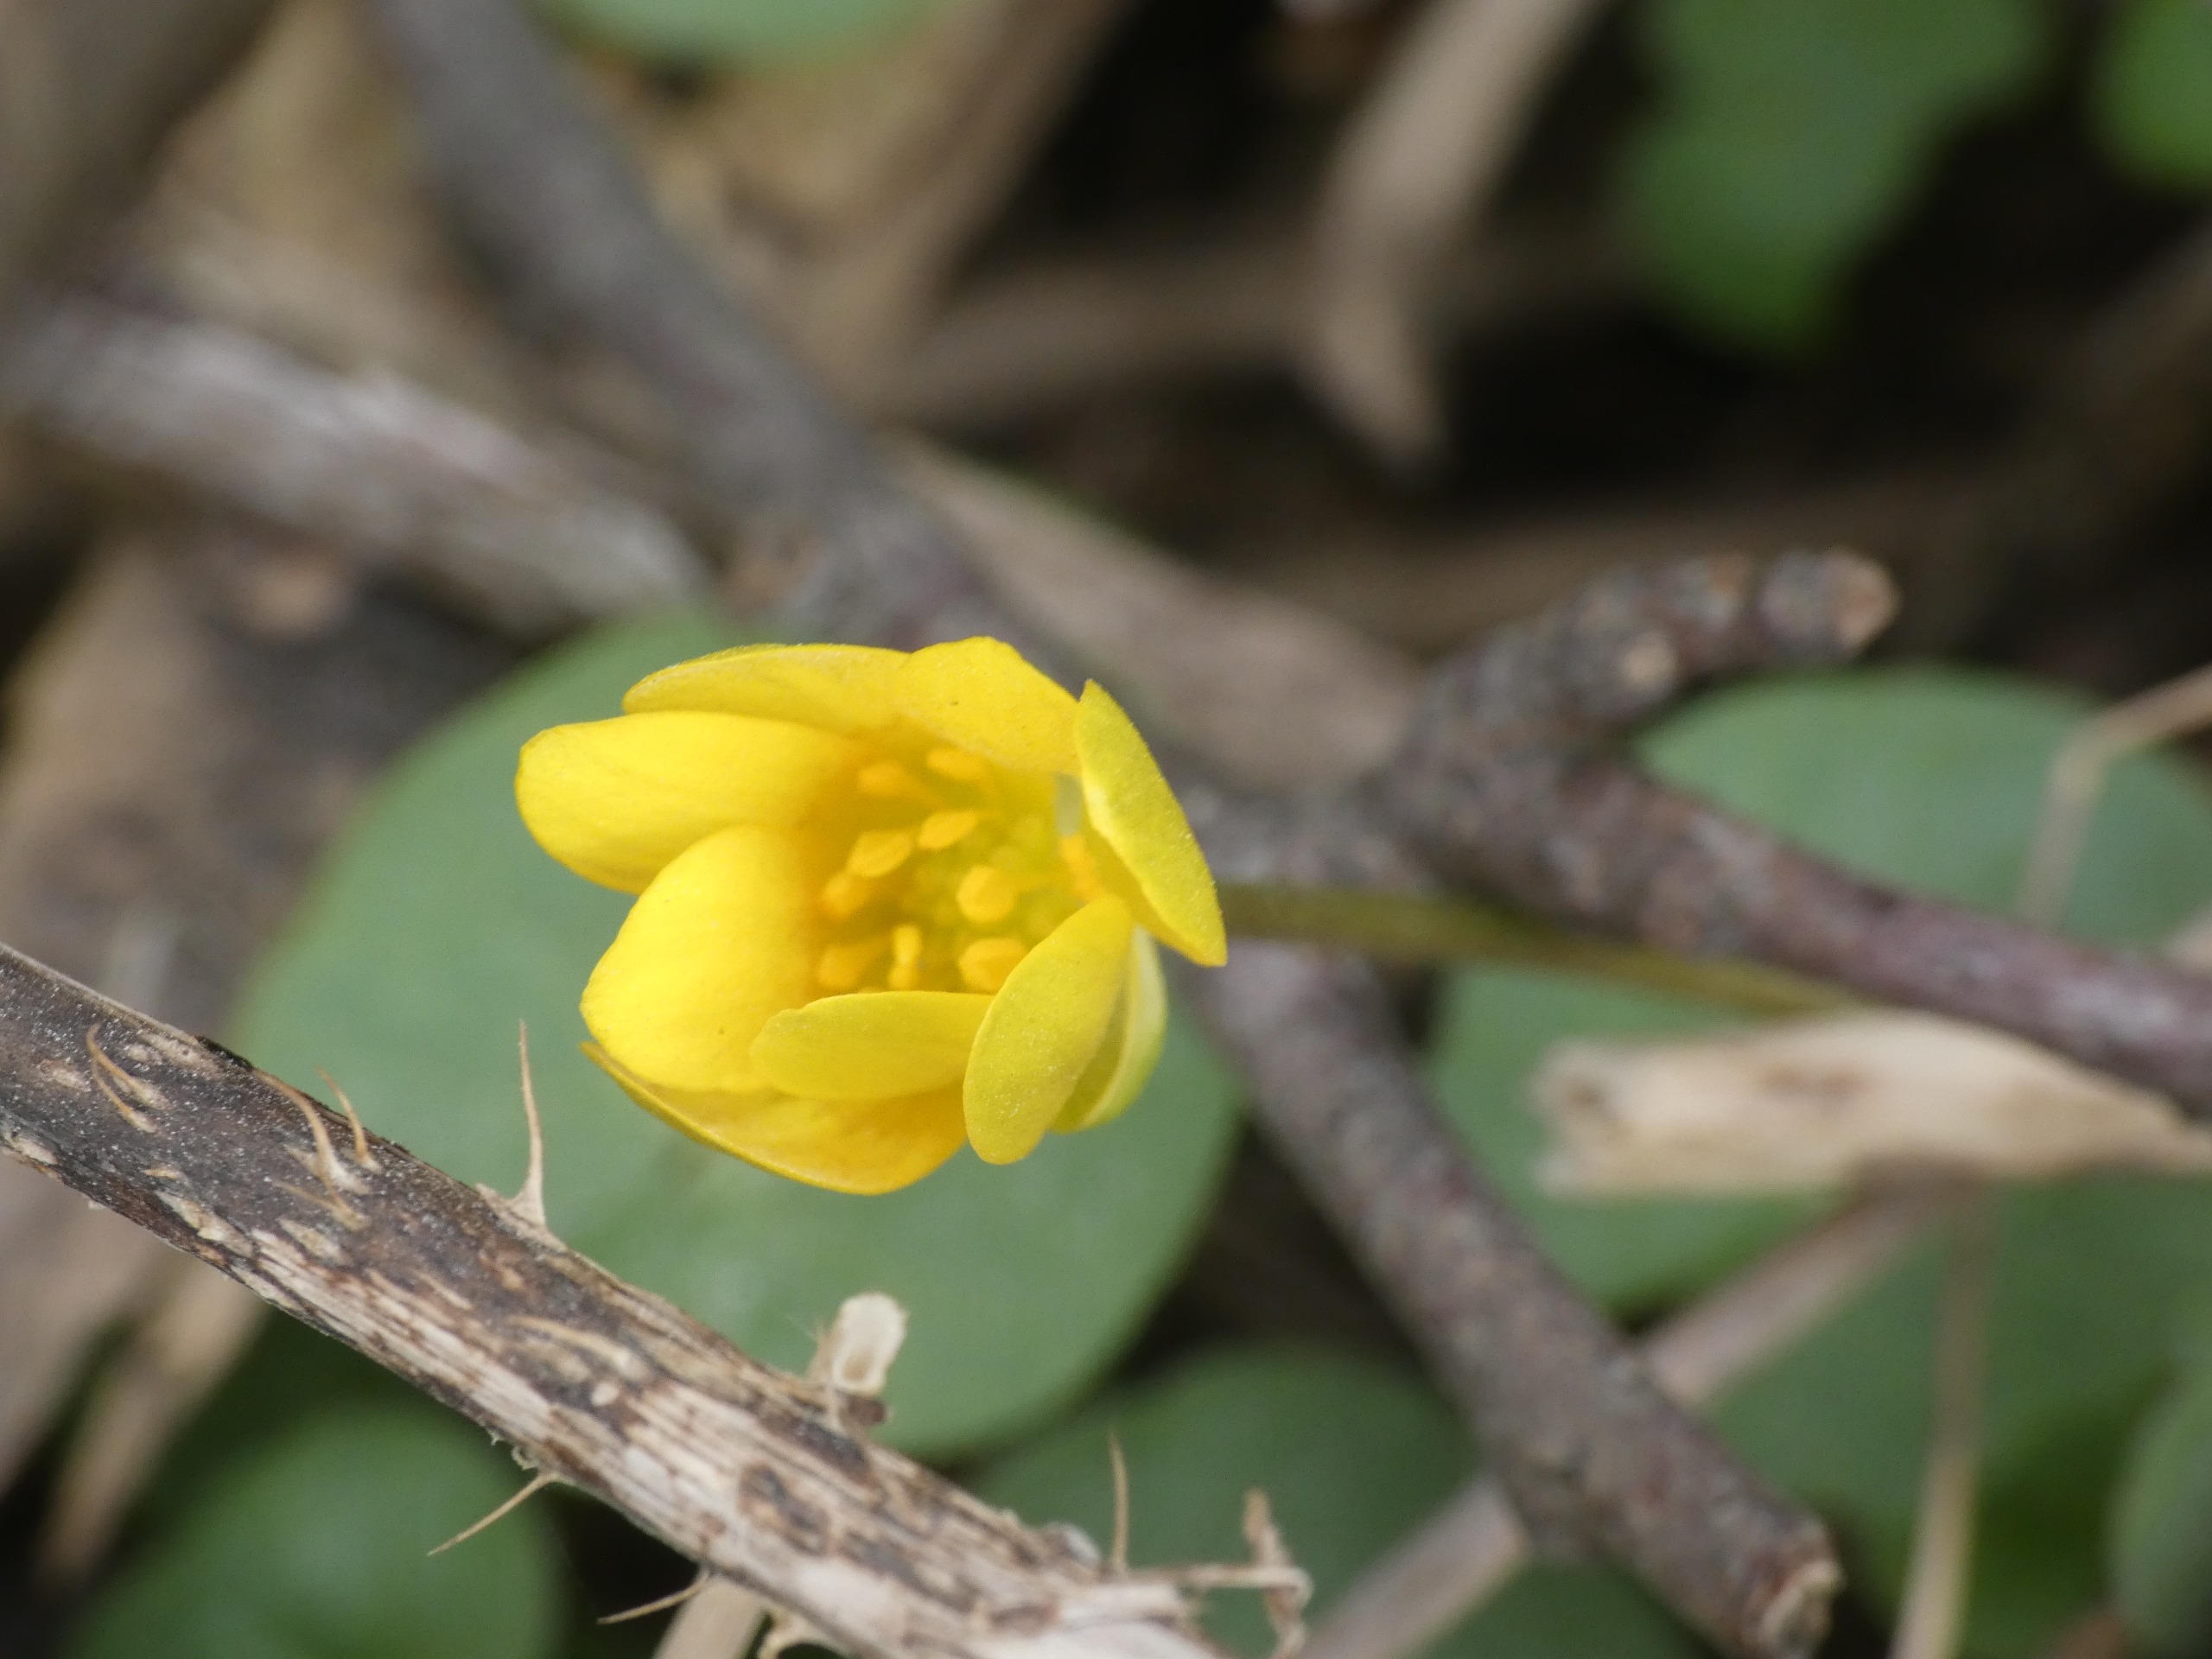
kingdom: Plantae
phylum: Tracheophyta
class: Magnoliopsida
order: Ranunculales
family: Ranunculaceae
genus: Ficaria
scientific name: Ficaria verna
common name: Vorterod
